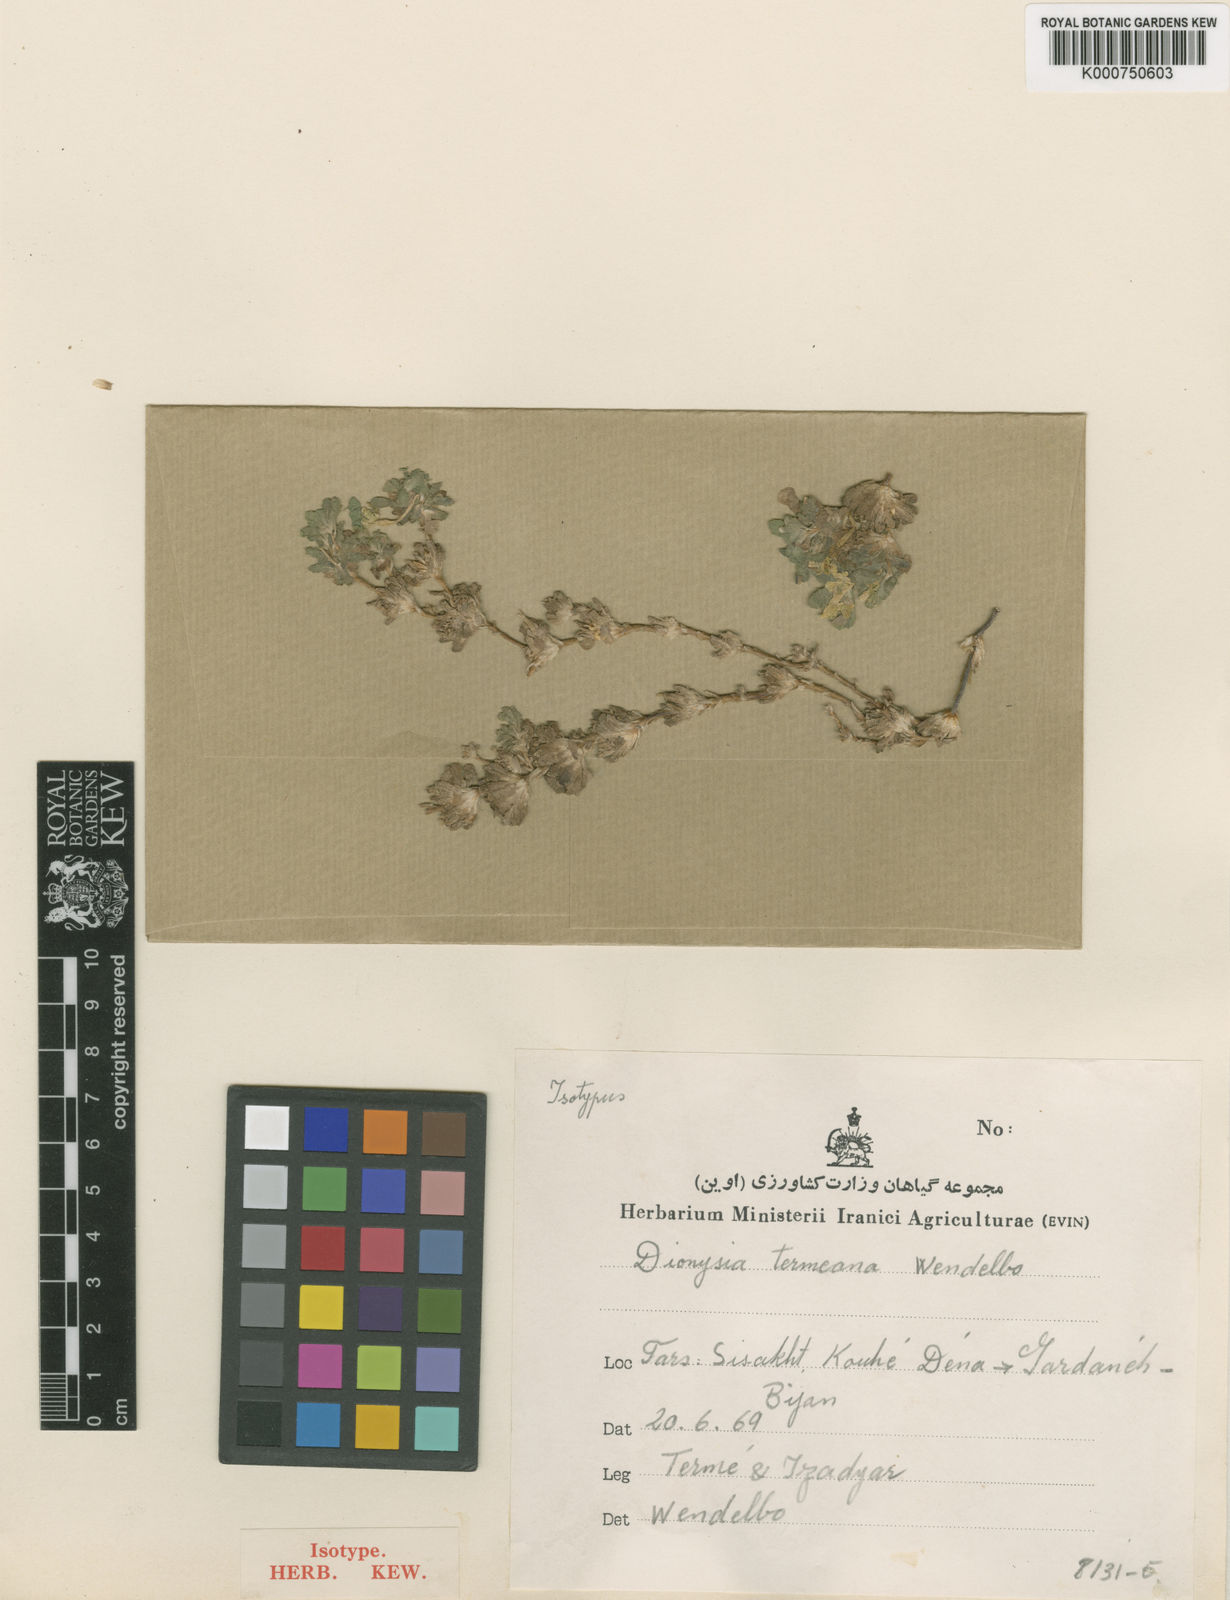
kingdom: Plantae
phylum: Tracheophyta
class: Magnoliopsida
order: Ericales
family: Primulaceae
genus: Dionysia
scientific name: Dionysia termeana
